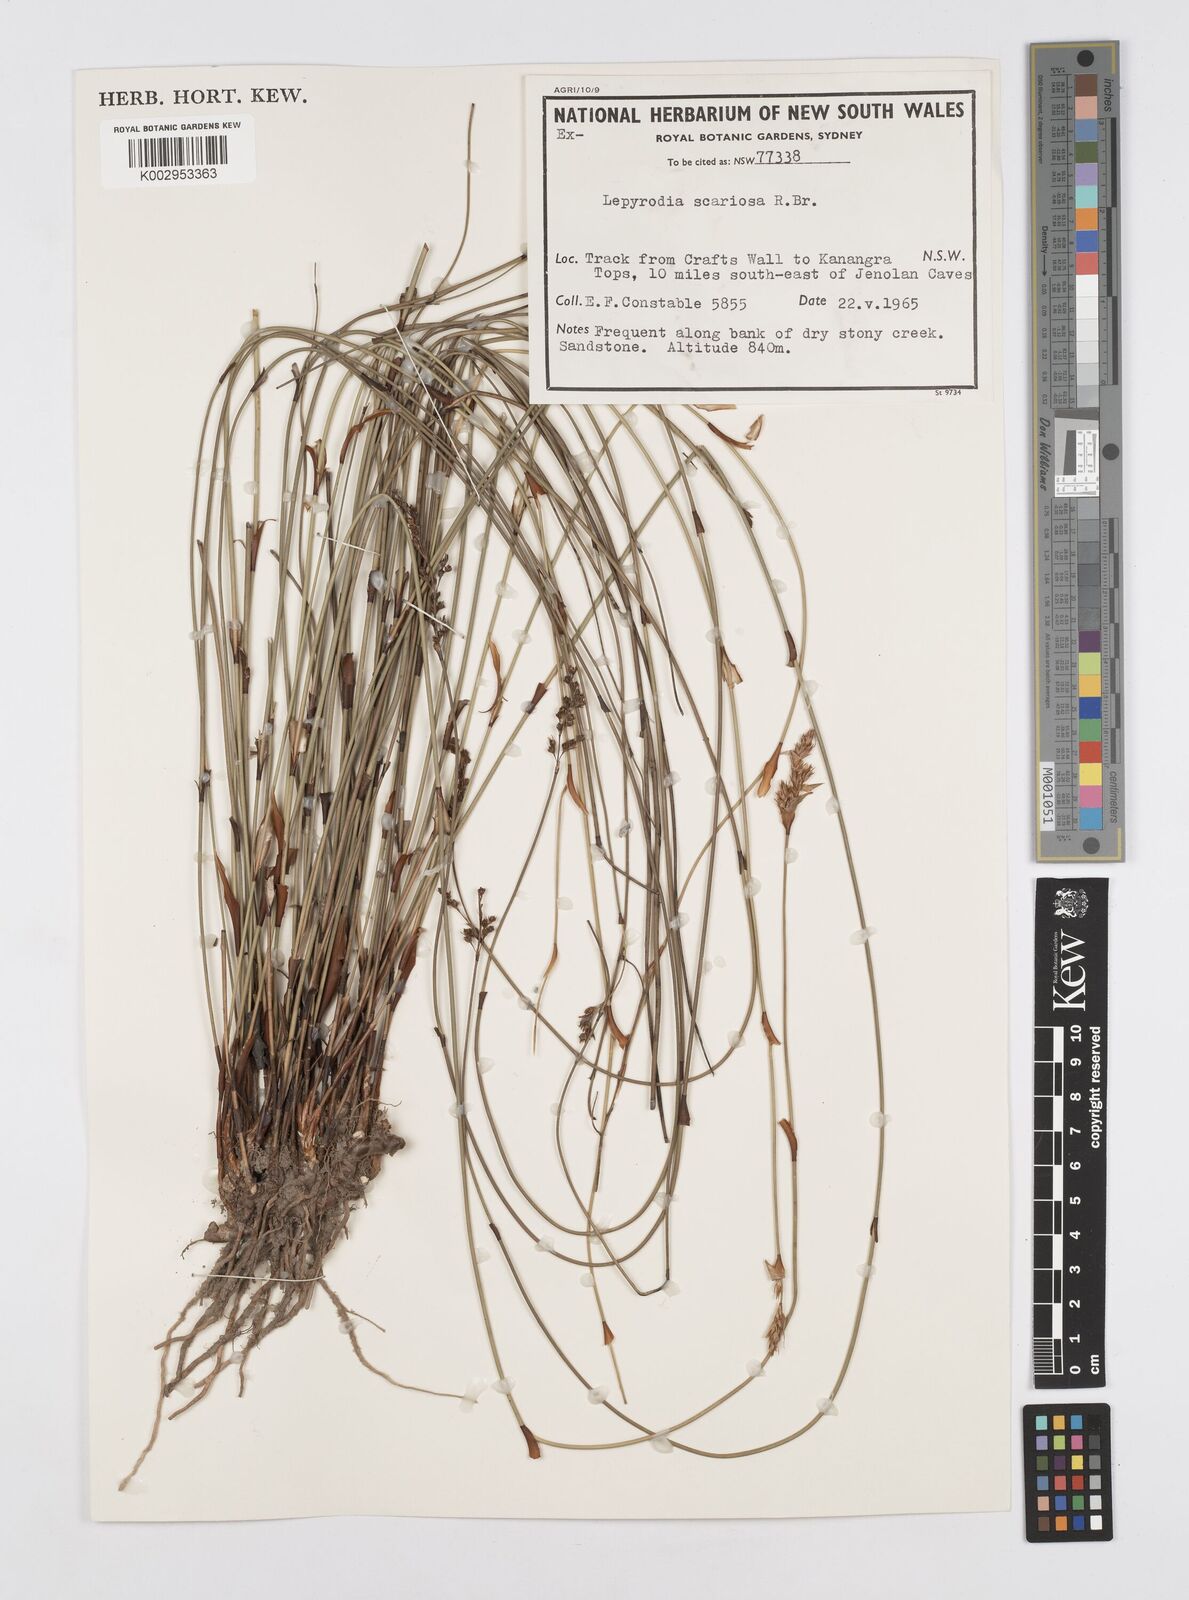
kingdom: Plantae
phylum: Tracheophyta
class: Liliopsida
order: Poales
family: Restionaceae
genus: Lepyrodia
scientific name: Lepyrodia scariosa
